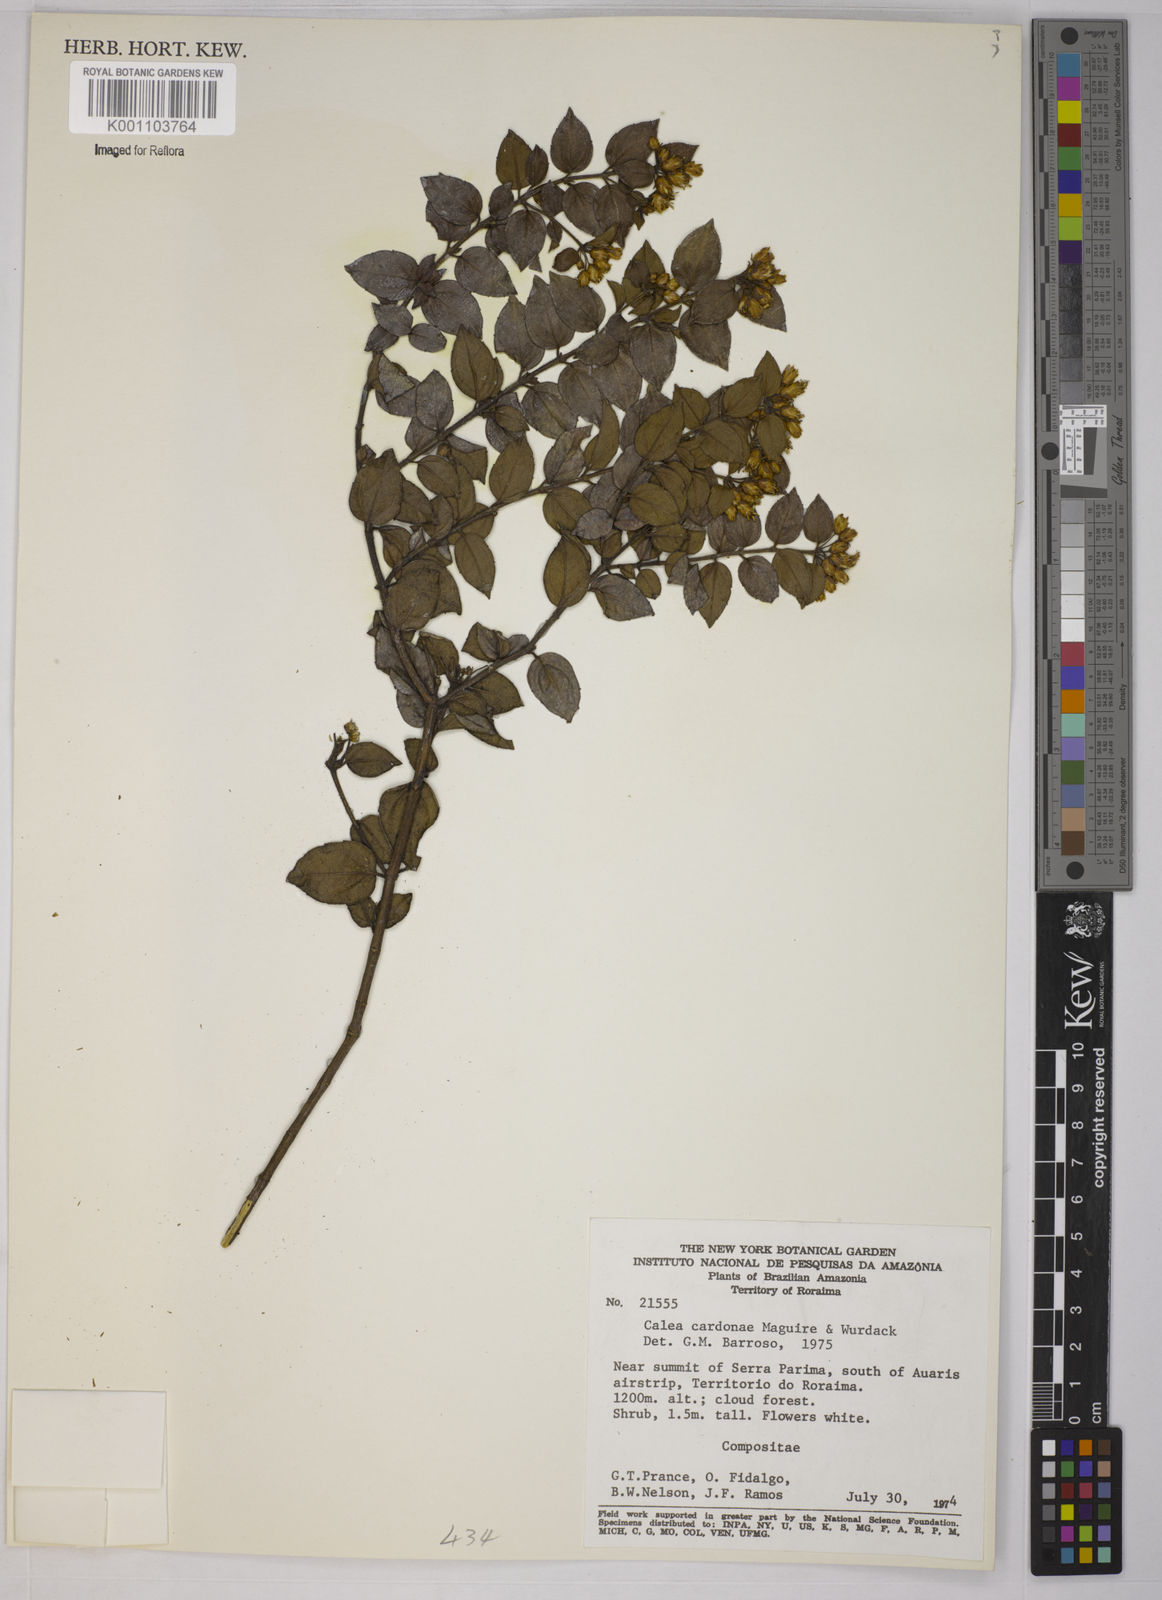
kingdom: Plantae
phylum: Tracheophyta
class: Magnoliopsida
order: Asterales
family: Asteraceae
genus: Calea
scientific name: Calea lucidivenia
